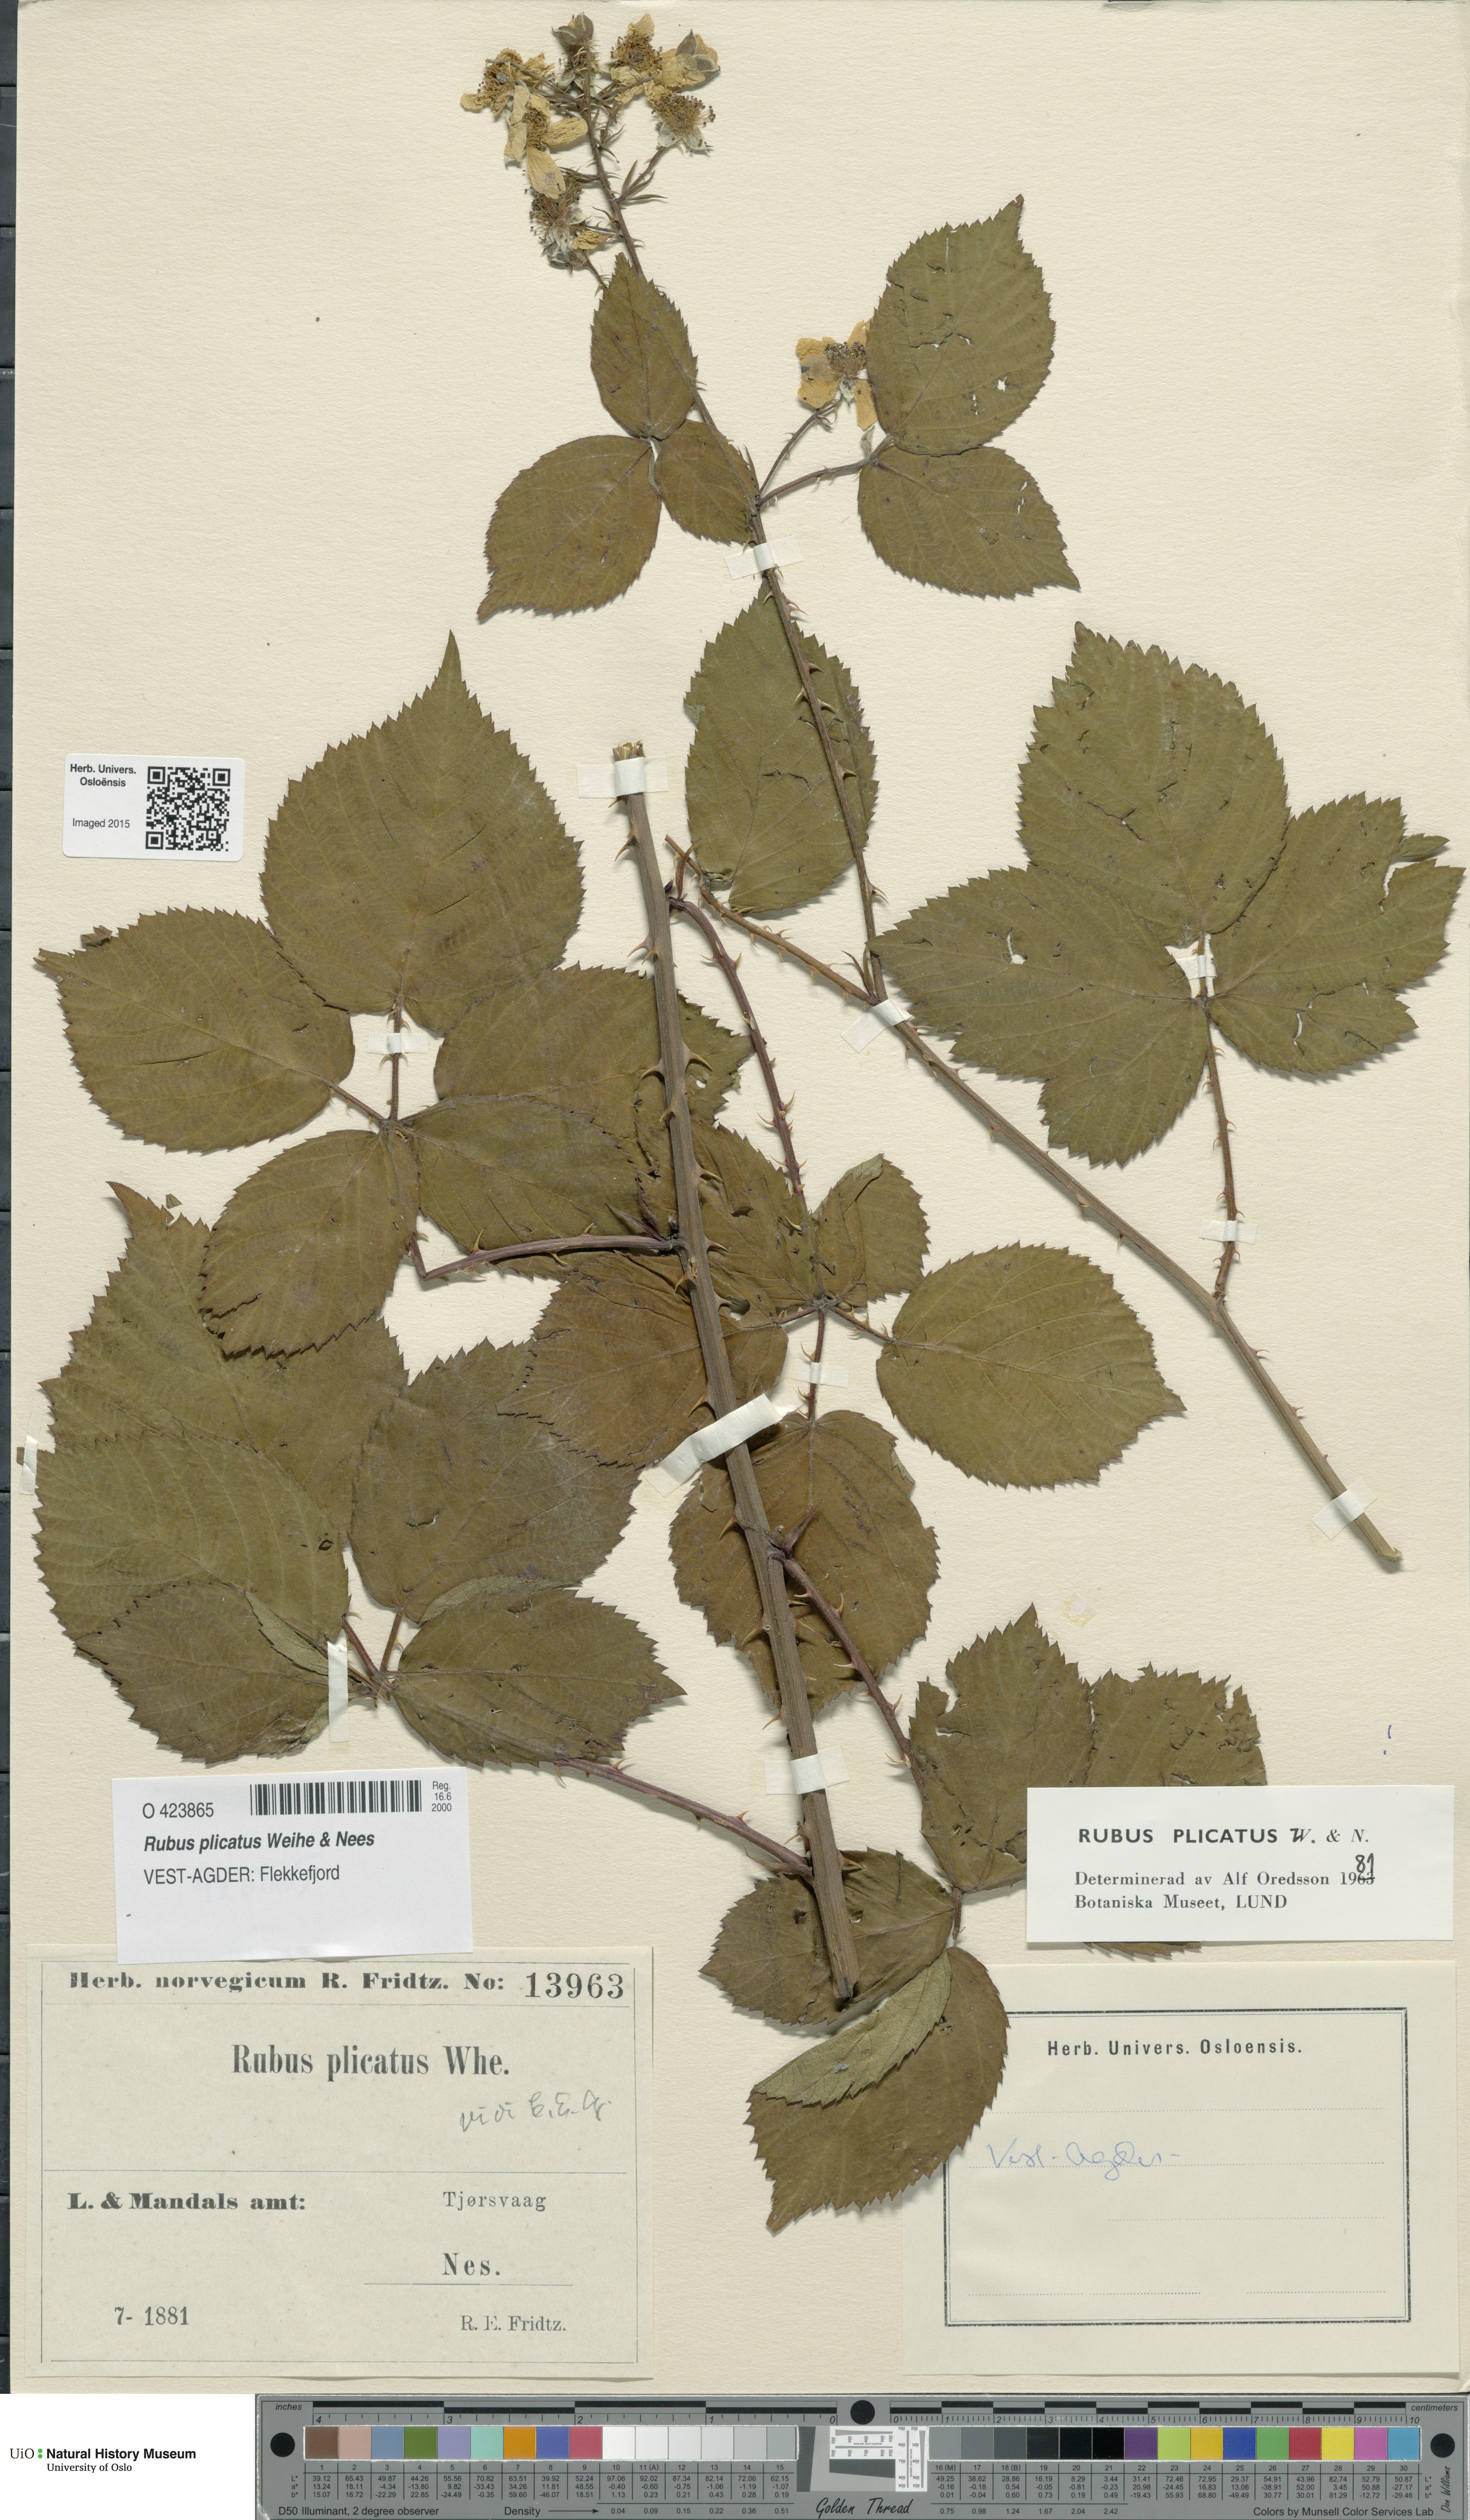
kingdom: Plantae
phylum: Tracheophyta
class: Magnoliopsida
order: Rosales
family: Rosaceae
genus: Rubus
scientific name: Rubus fruticosus
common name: Blackberry, bramble
